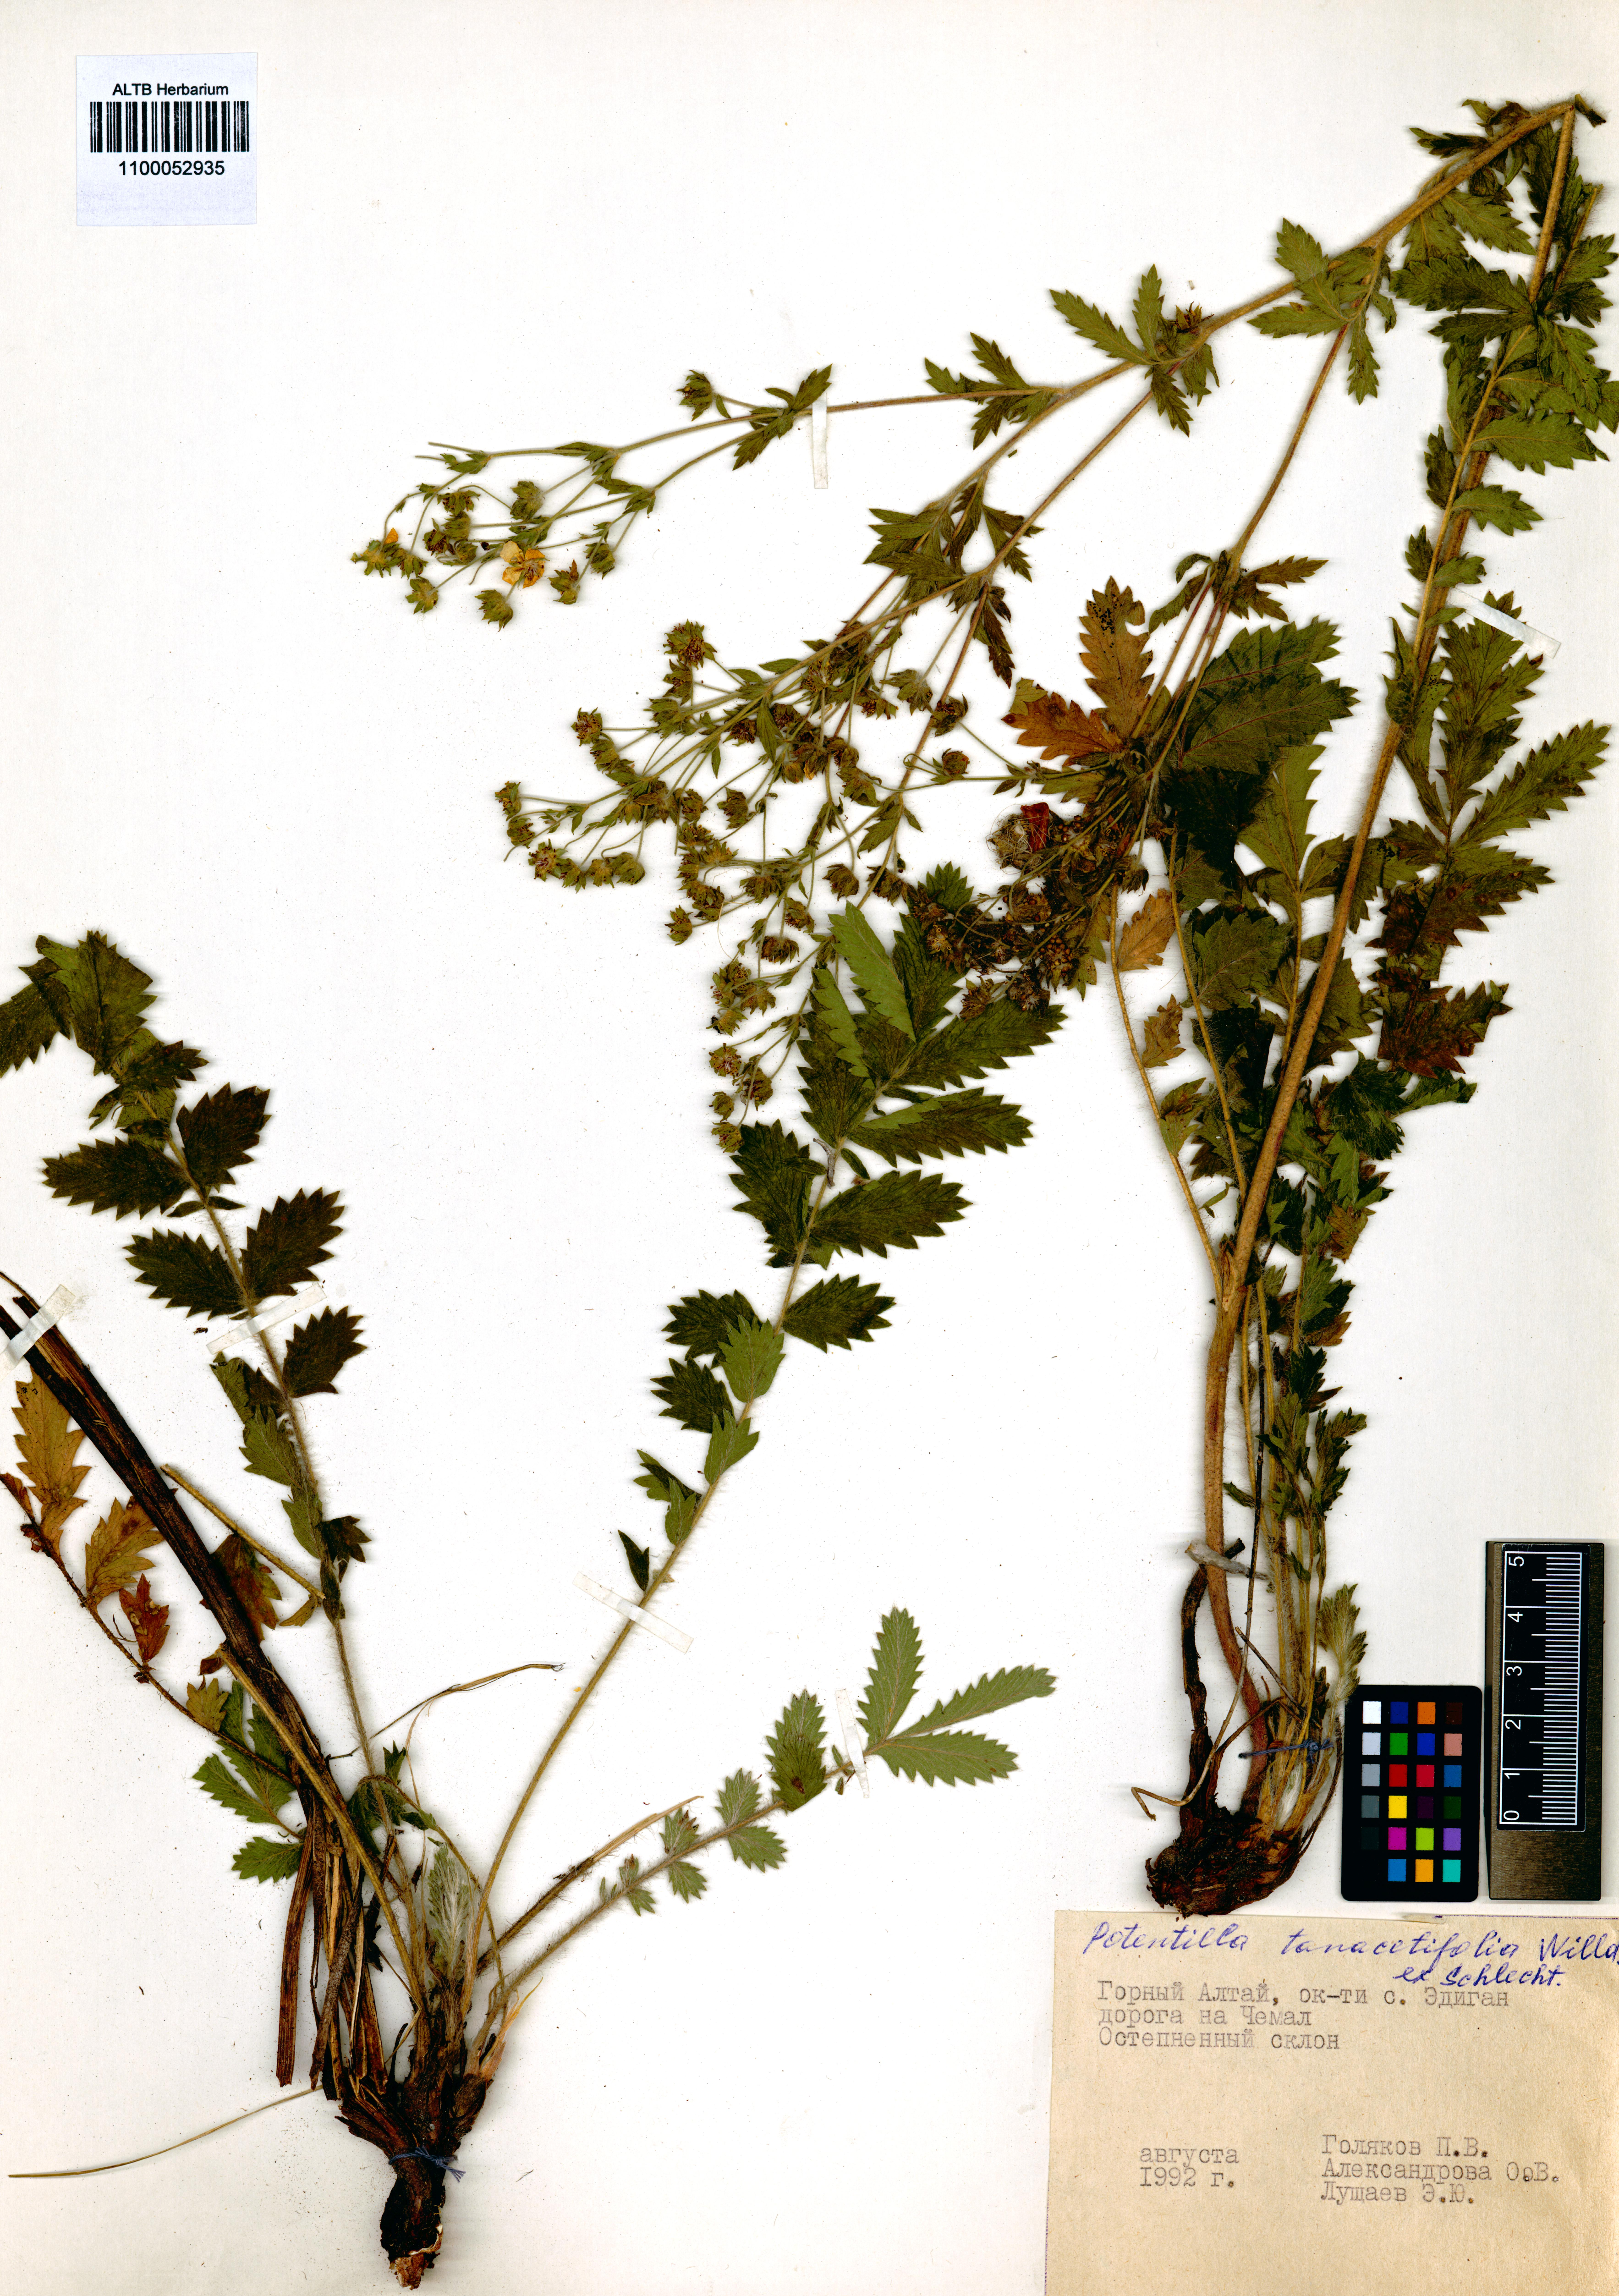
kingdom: Plantae
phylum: Tracheophyta
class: Magnoliopsida
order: Rosales
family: Rosaceae
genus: Potentilla
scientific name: Potentilla tanacetifolia
